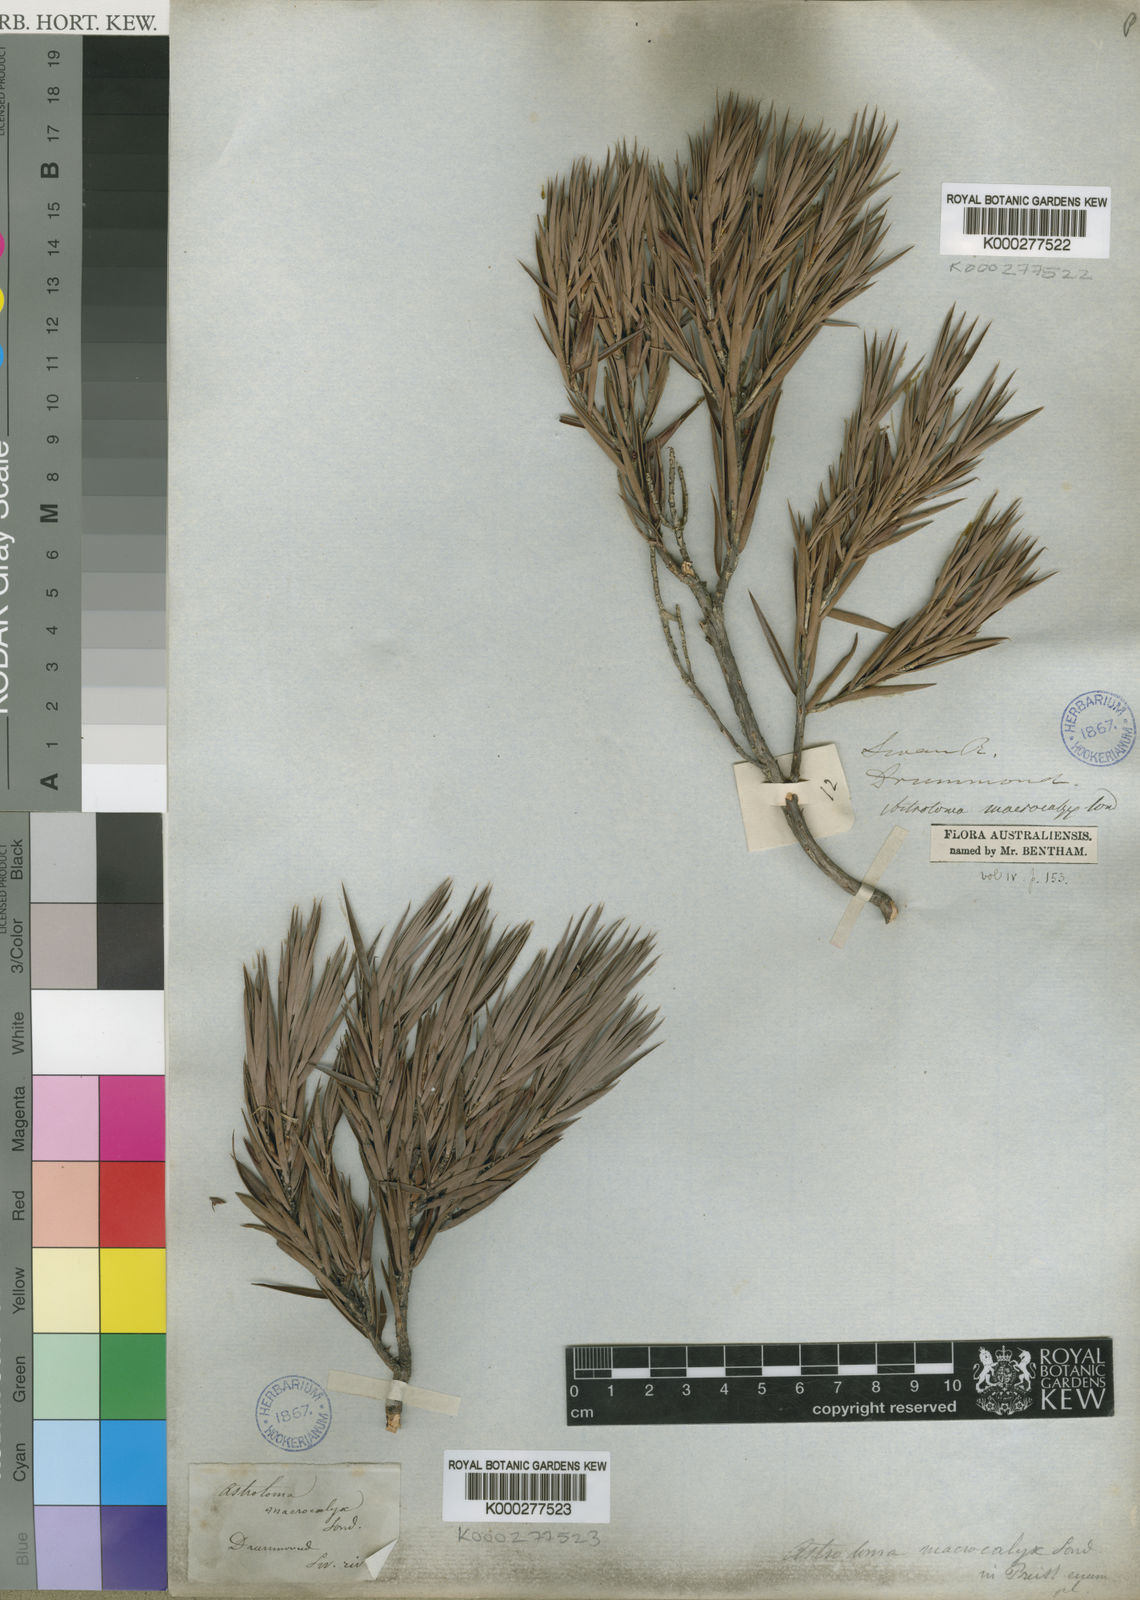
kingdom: Plantae
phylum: Tracheophyta
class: Magnoliopsida
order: Ericales
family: Ericaceae
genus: Styphelia
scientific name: Styphelia macrocalyx
